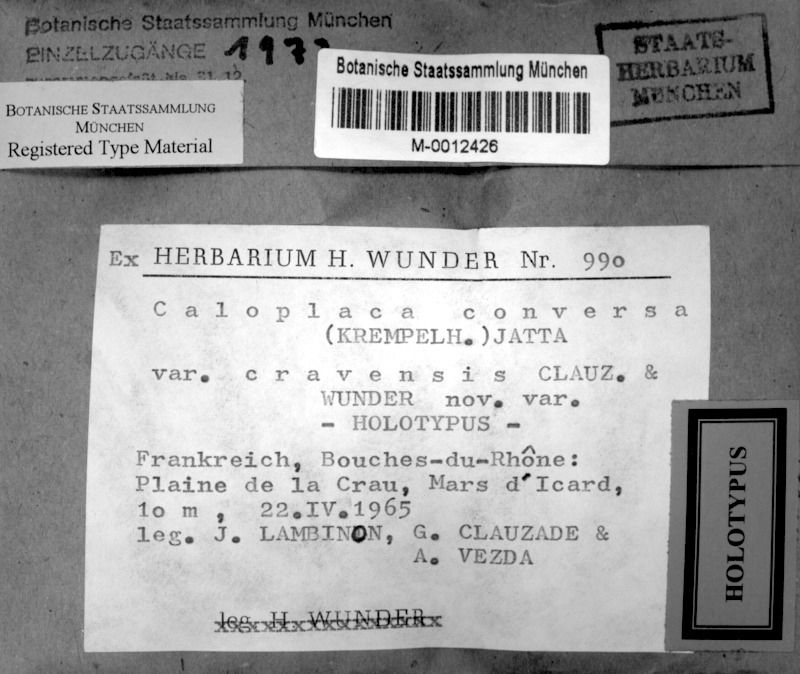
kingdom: Fungi
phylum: Ascomycota
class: Lecanoromycetes
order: Teloschistales
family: Teloschistaceae
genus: Caloplaca
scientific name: Caloplaca cravensis
